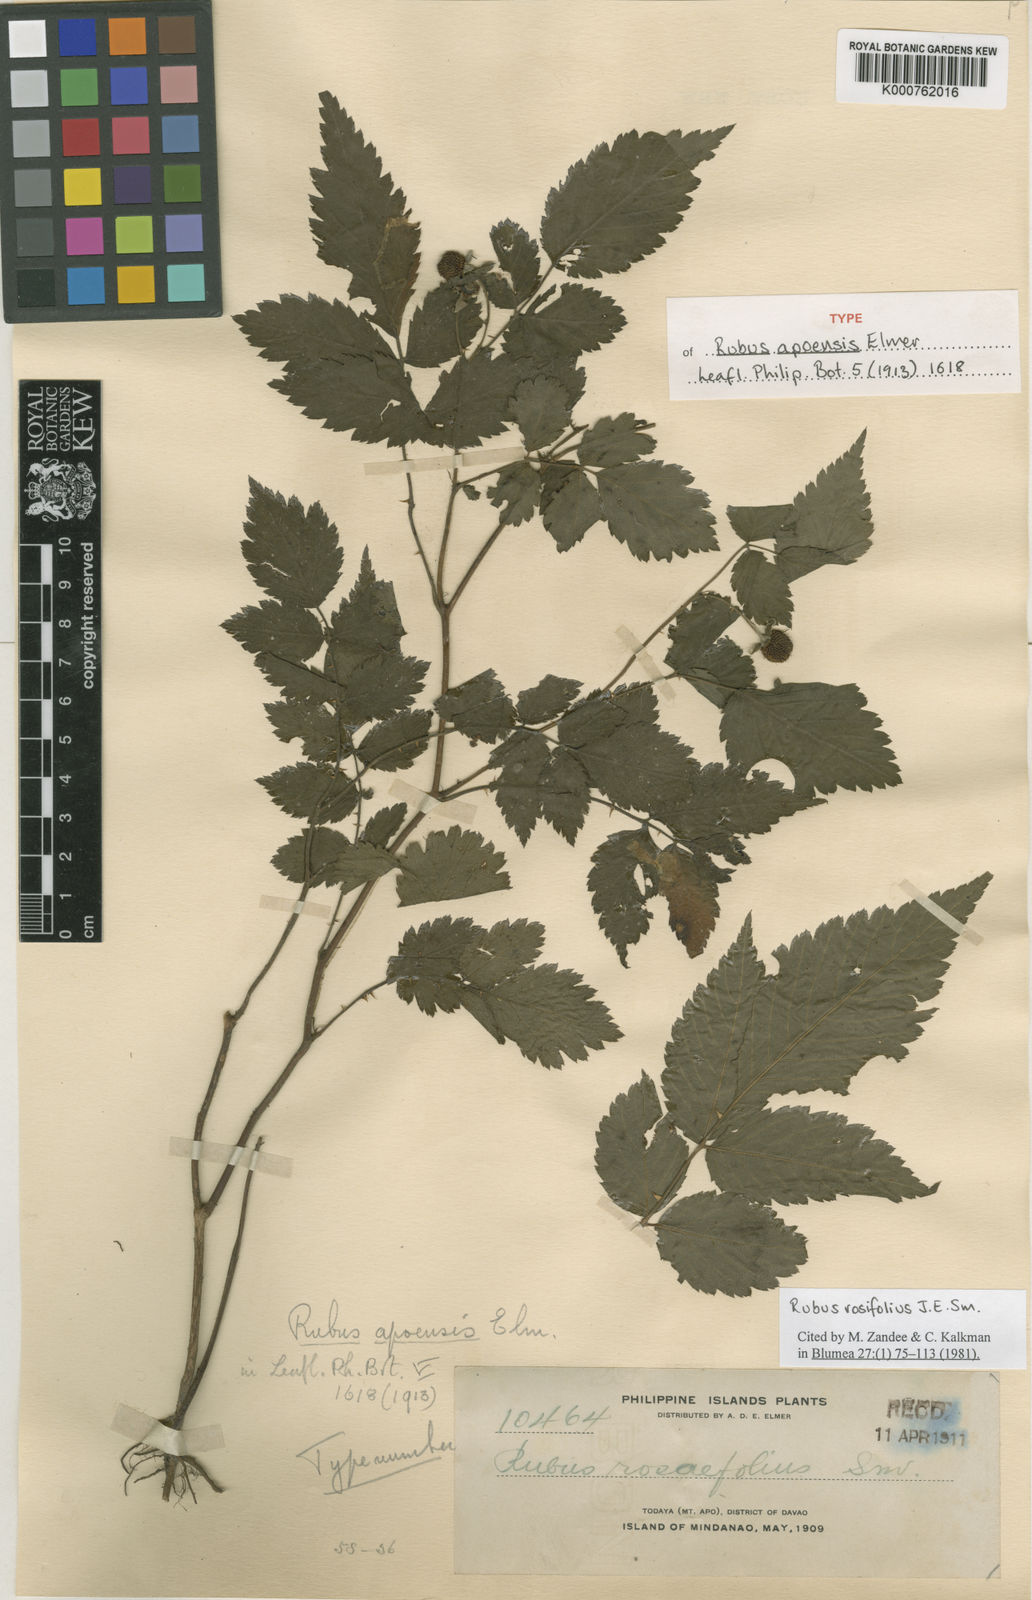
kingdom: Plantae
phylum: Tracheophyta
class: Magnoliopsida
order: Rosales
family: Rosaceae
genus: Rubus
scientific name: Rubus rosifolius
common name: Roseleaf raspberry
